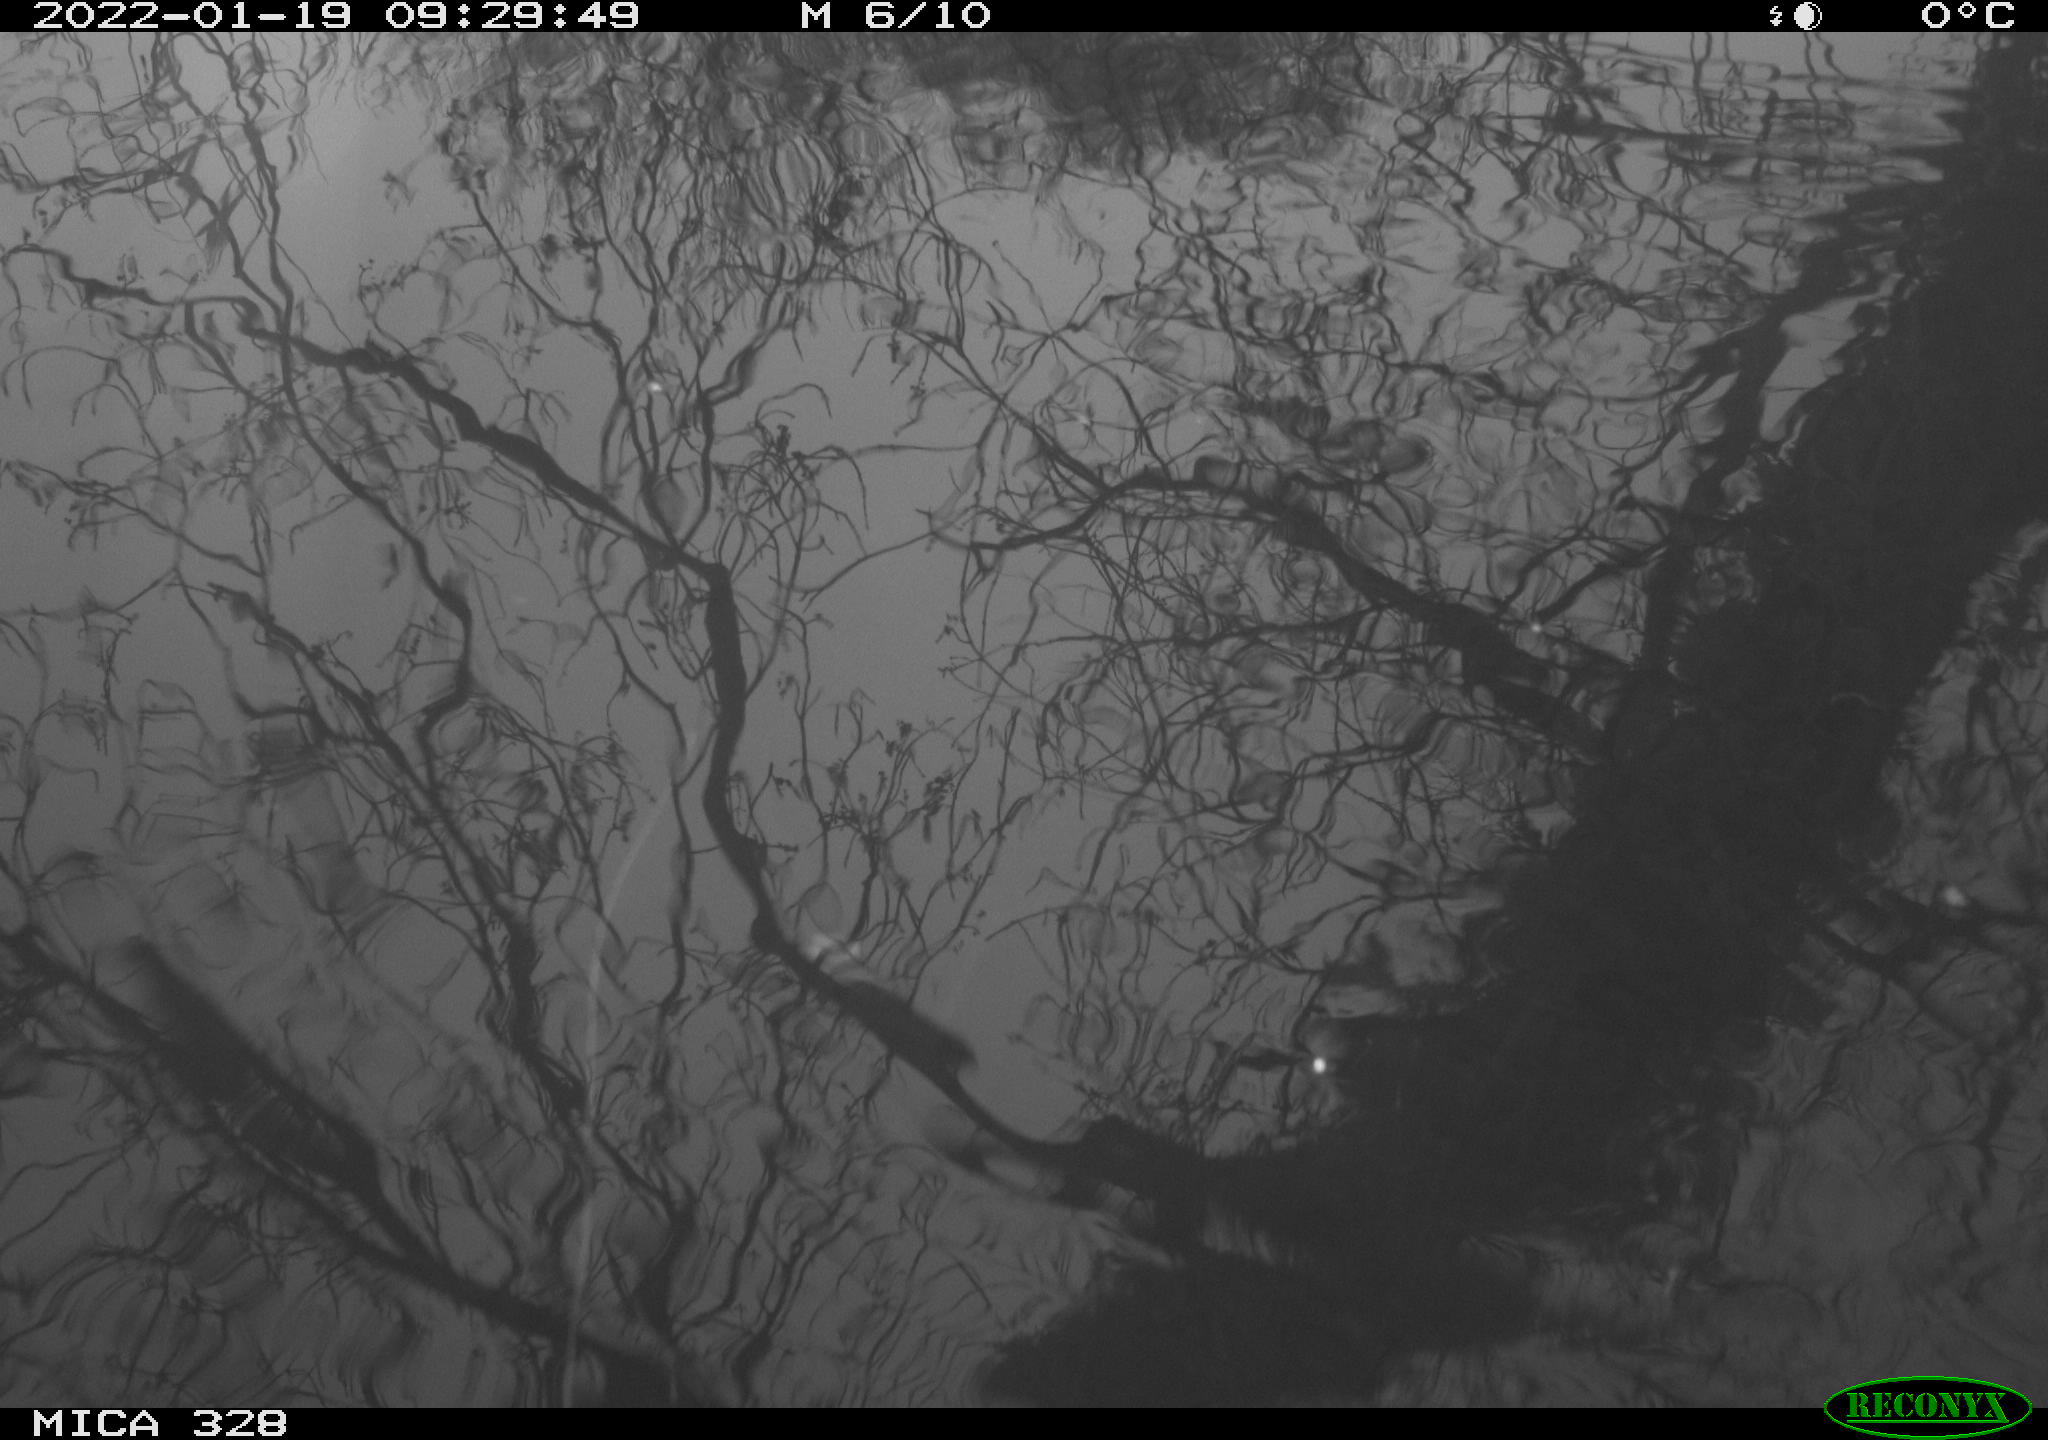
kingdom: Animalia
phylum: Chordata
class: Aves
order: Gruiformes
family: Rallidae
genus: Gallinula
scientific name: Gallinula chloropus
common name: Common moorhen
